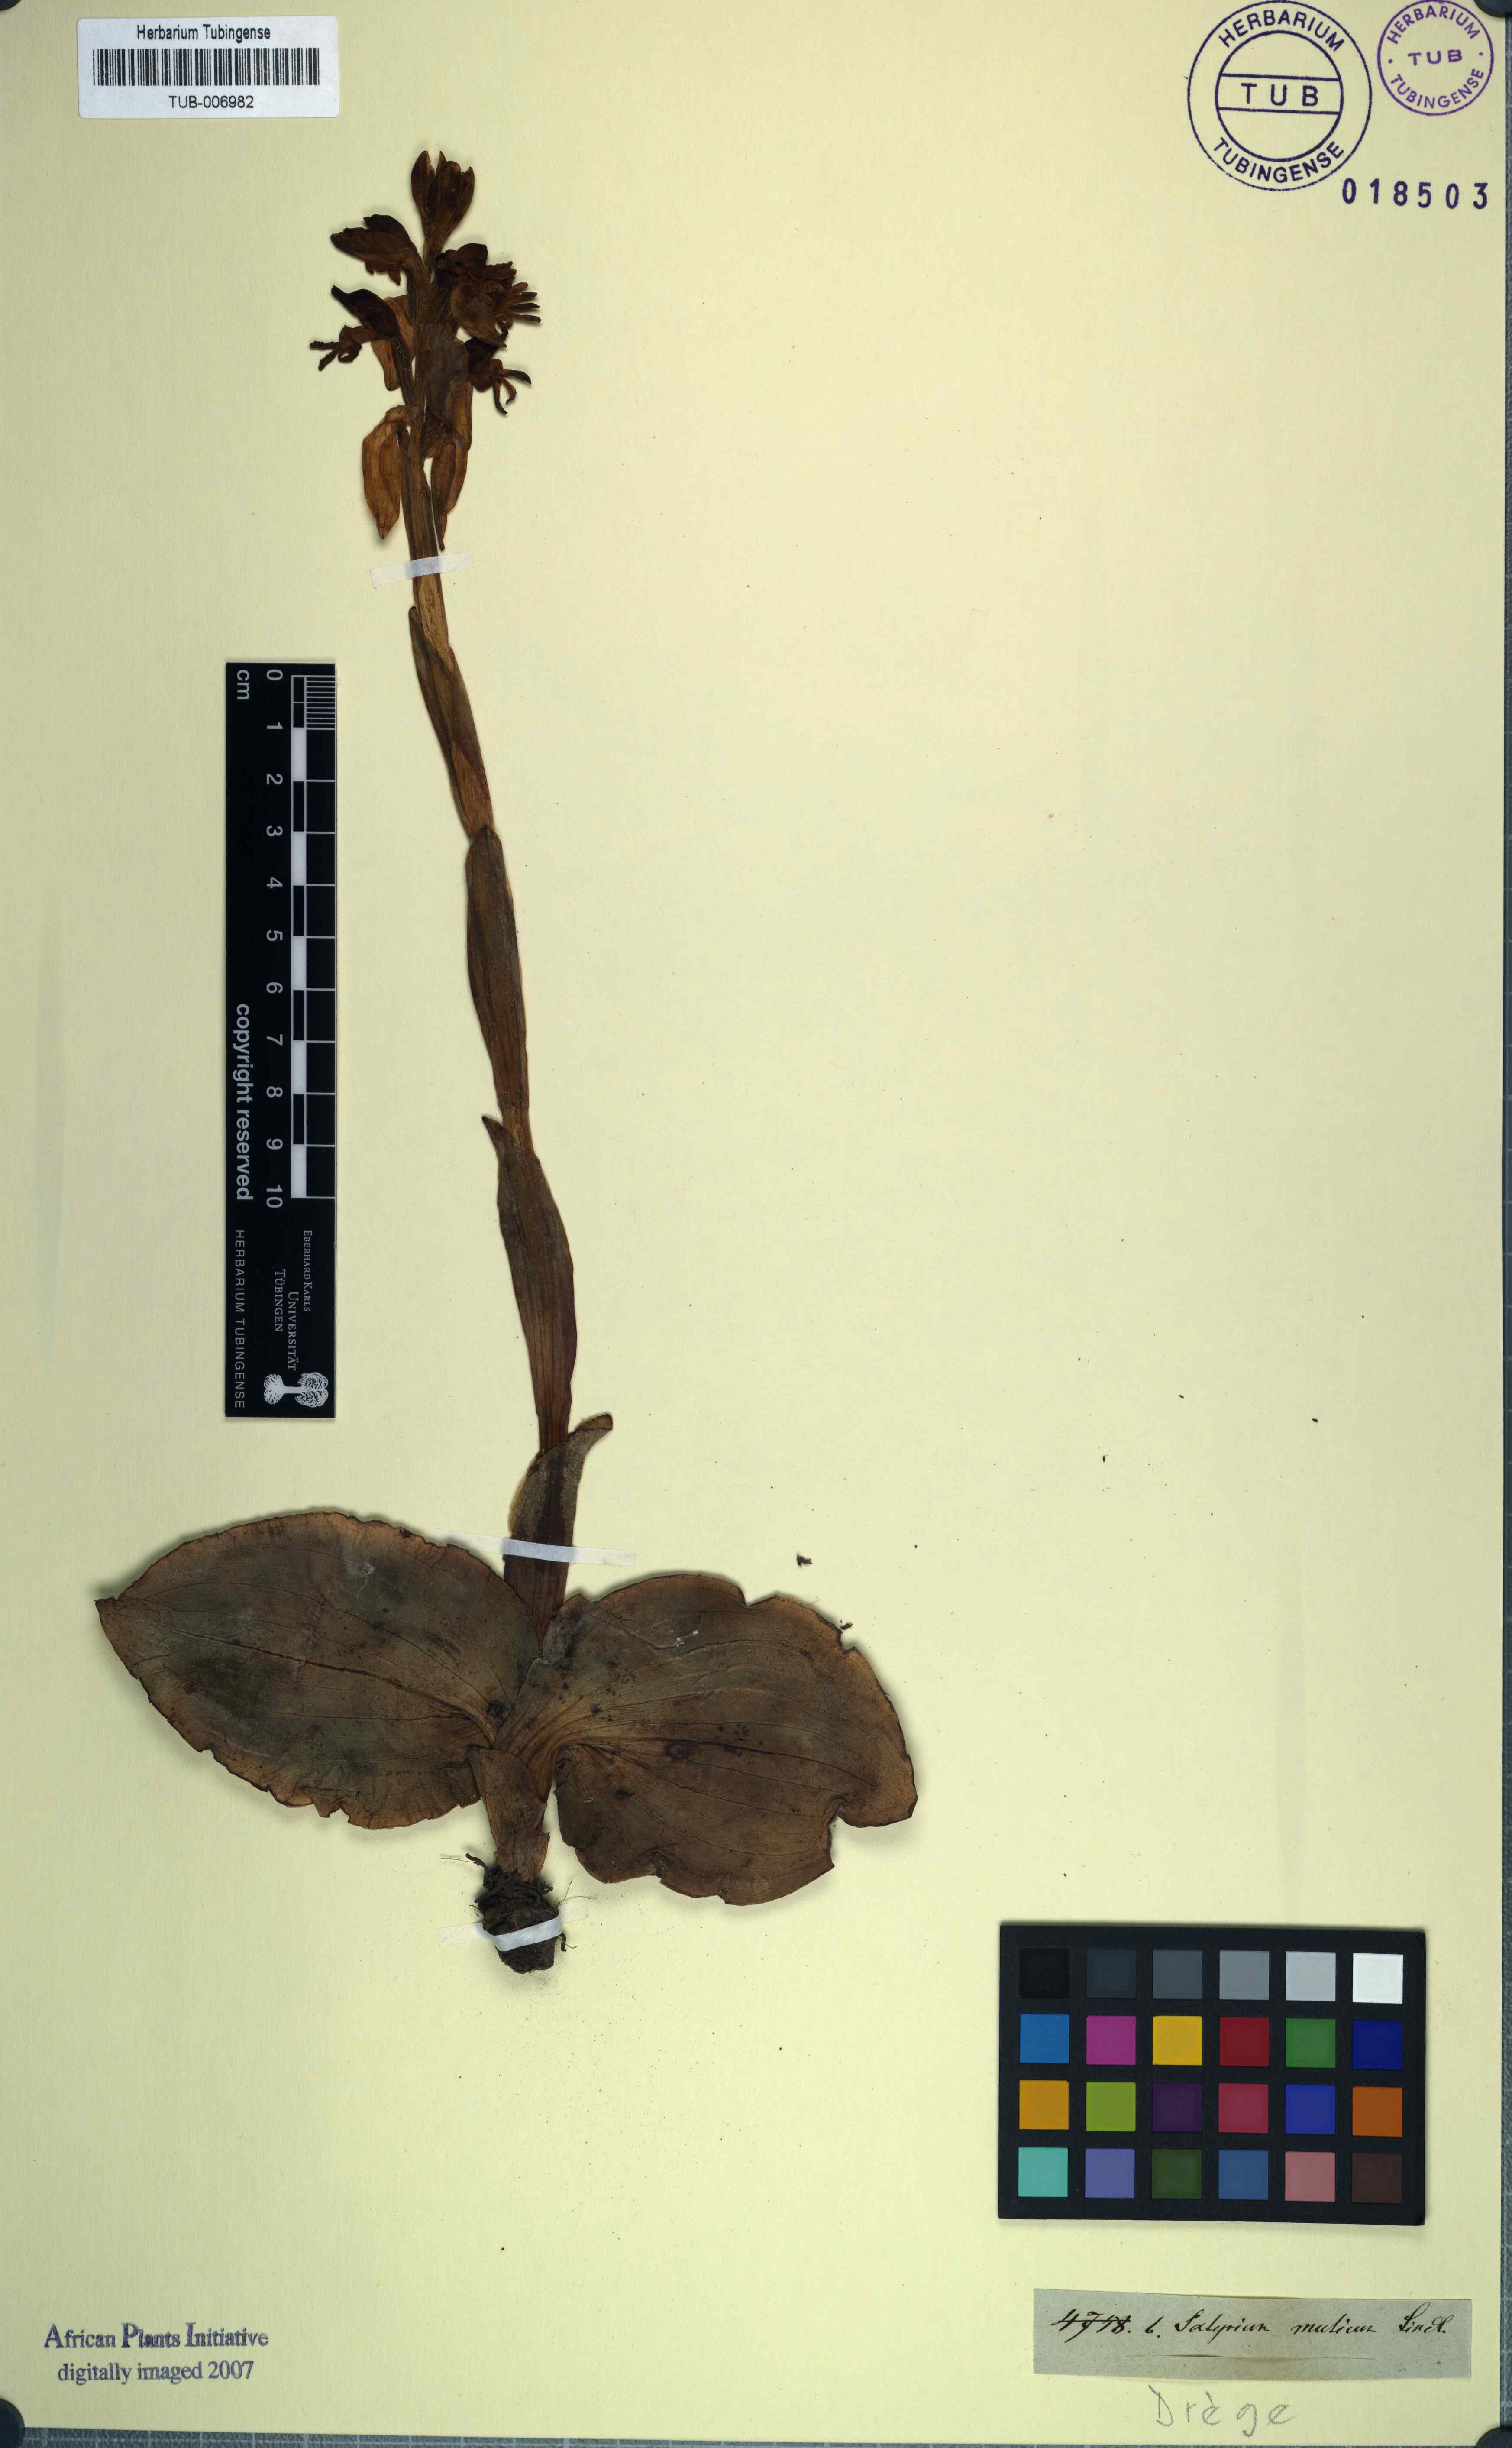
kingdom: Plantae
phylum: Tracheophyta
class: Liliopsida
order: Asparagales
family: Orchidaceae
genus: Satyrium
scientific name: Satyrium muticum
